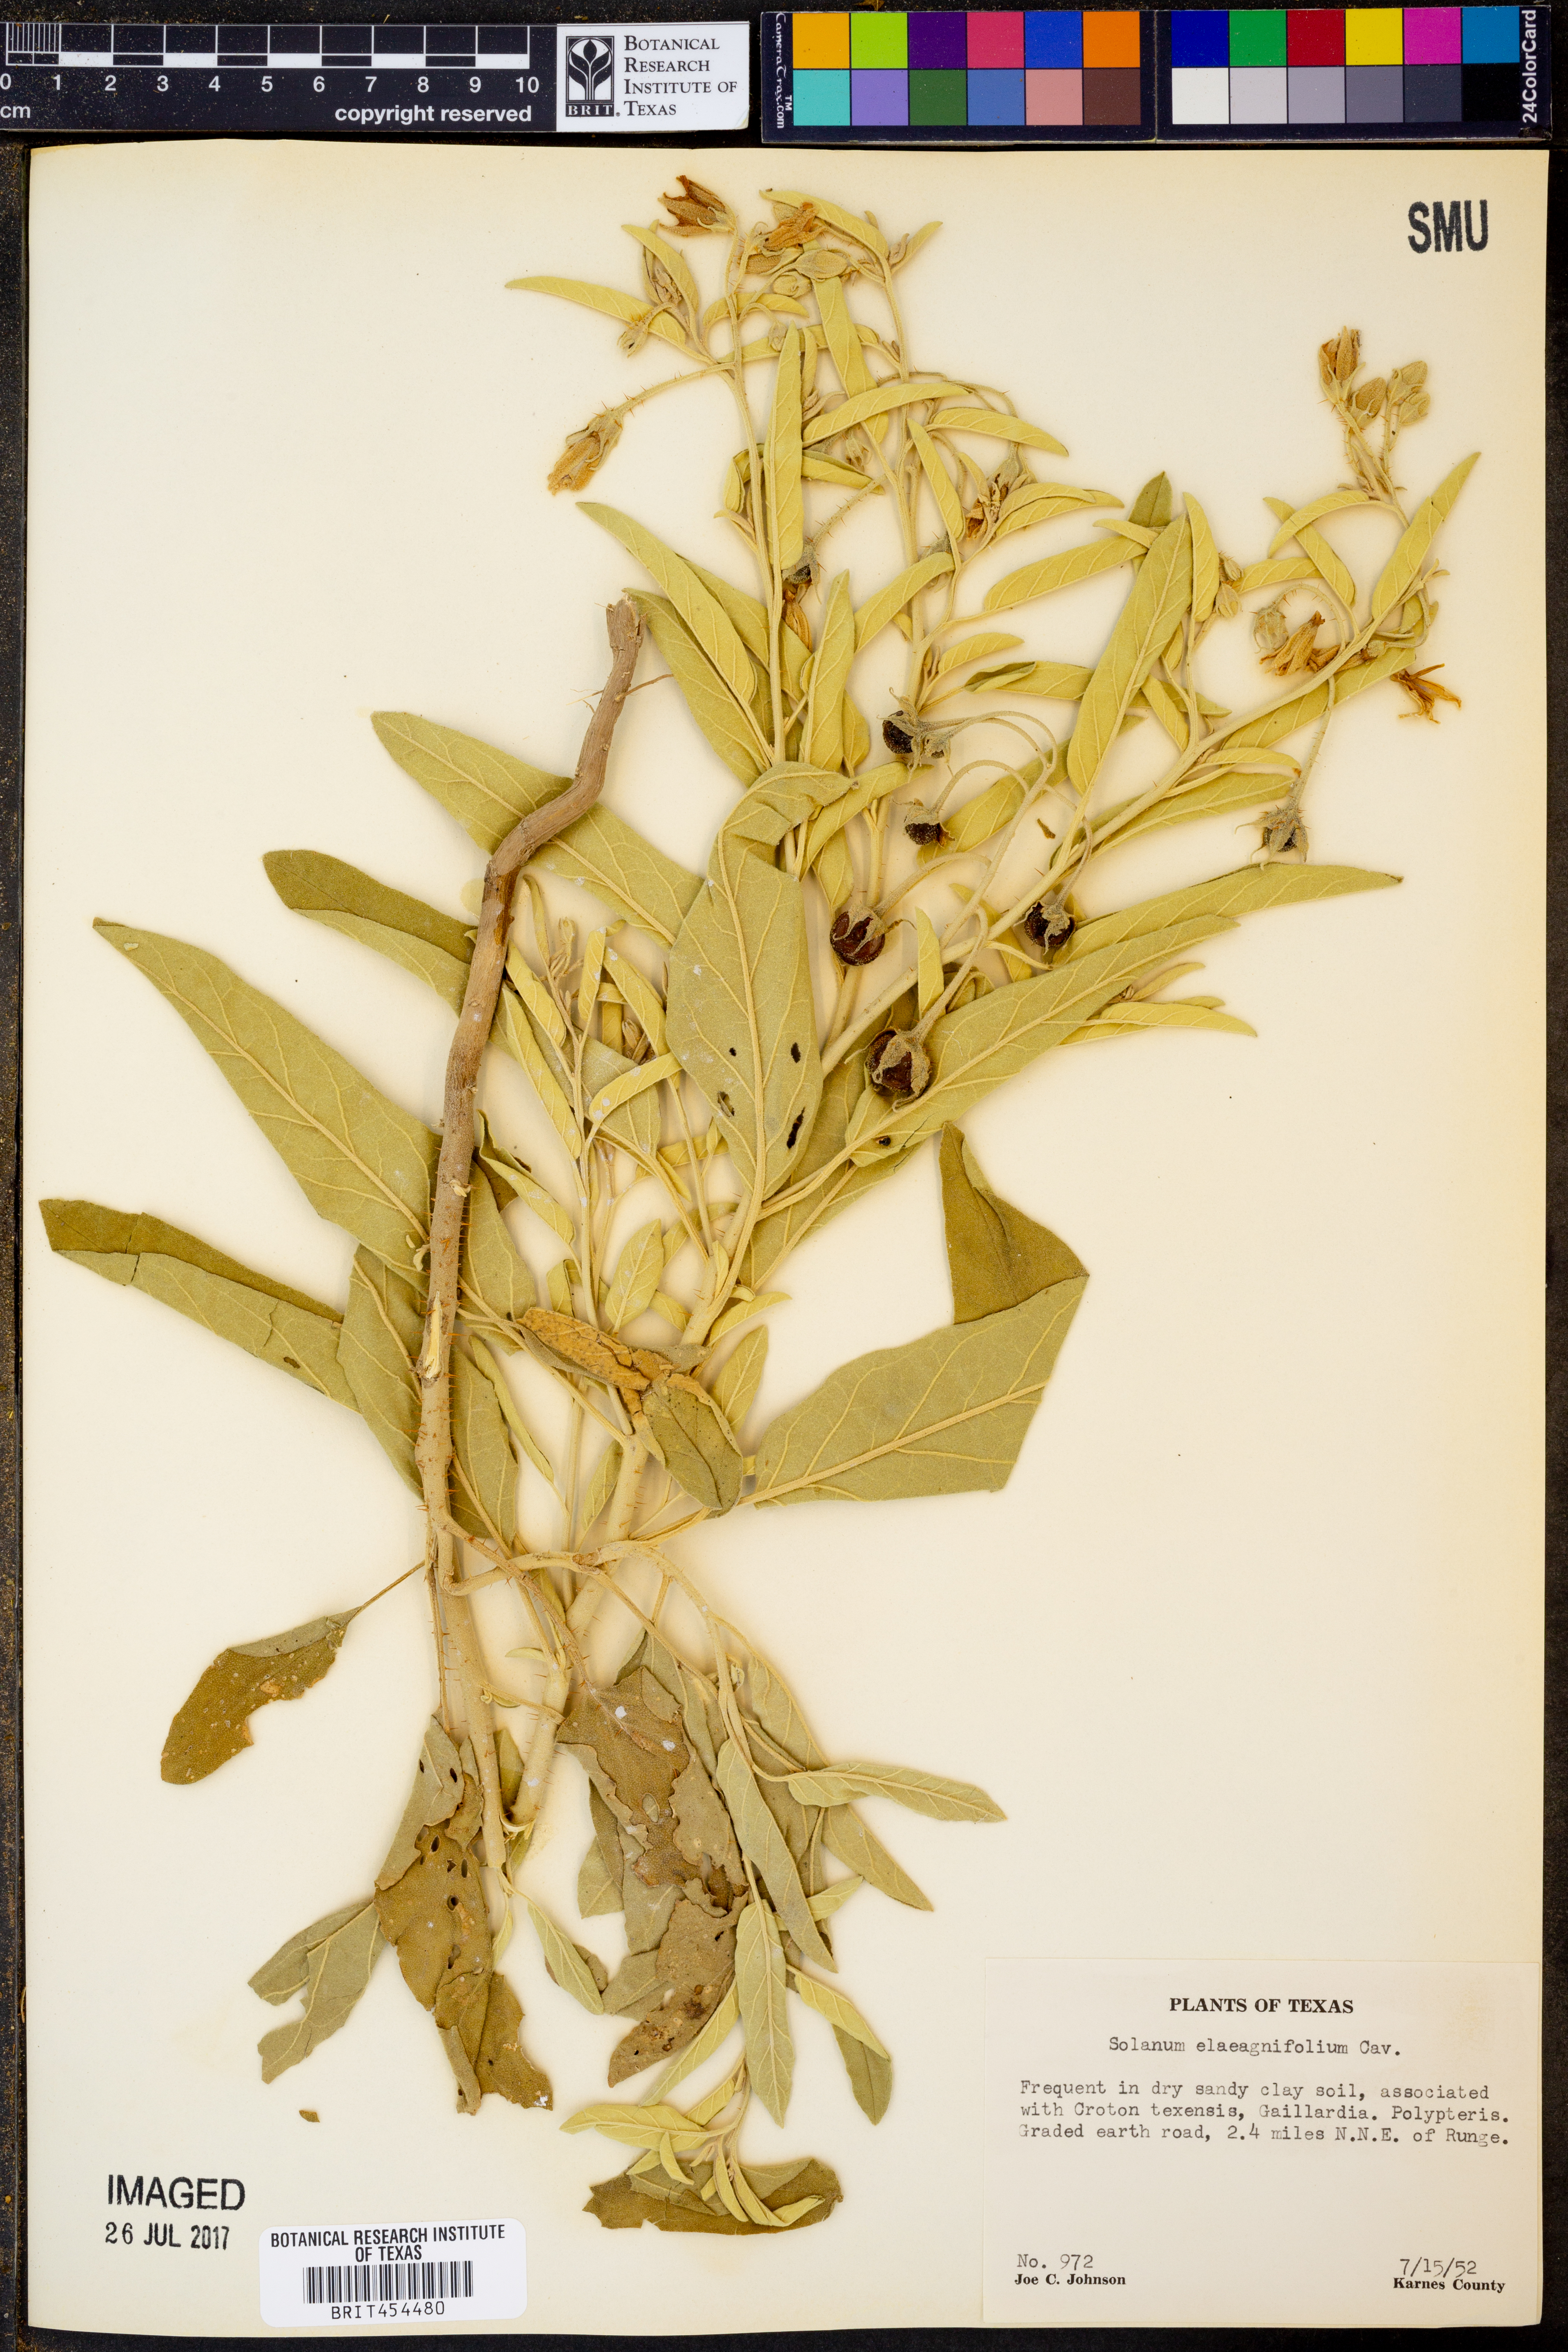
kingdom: Plantae
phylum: Tracheophyta
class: Magnoliopsida
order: Solanales
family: Solanaceae
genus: Solanum
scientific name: Solanum elaeagnifolium
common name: Silverleaf nightshade
